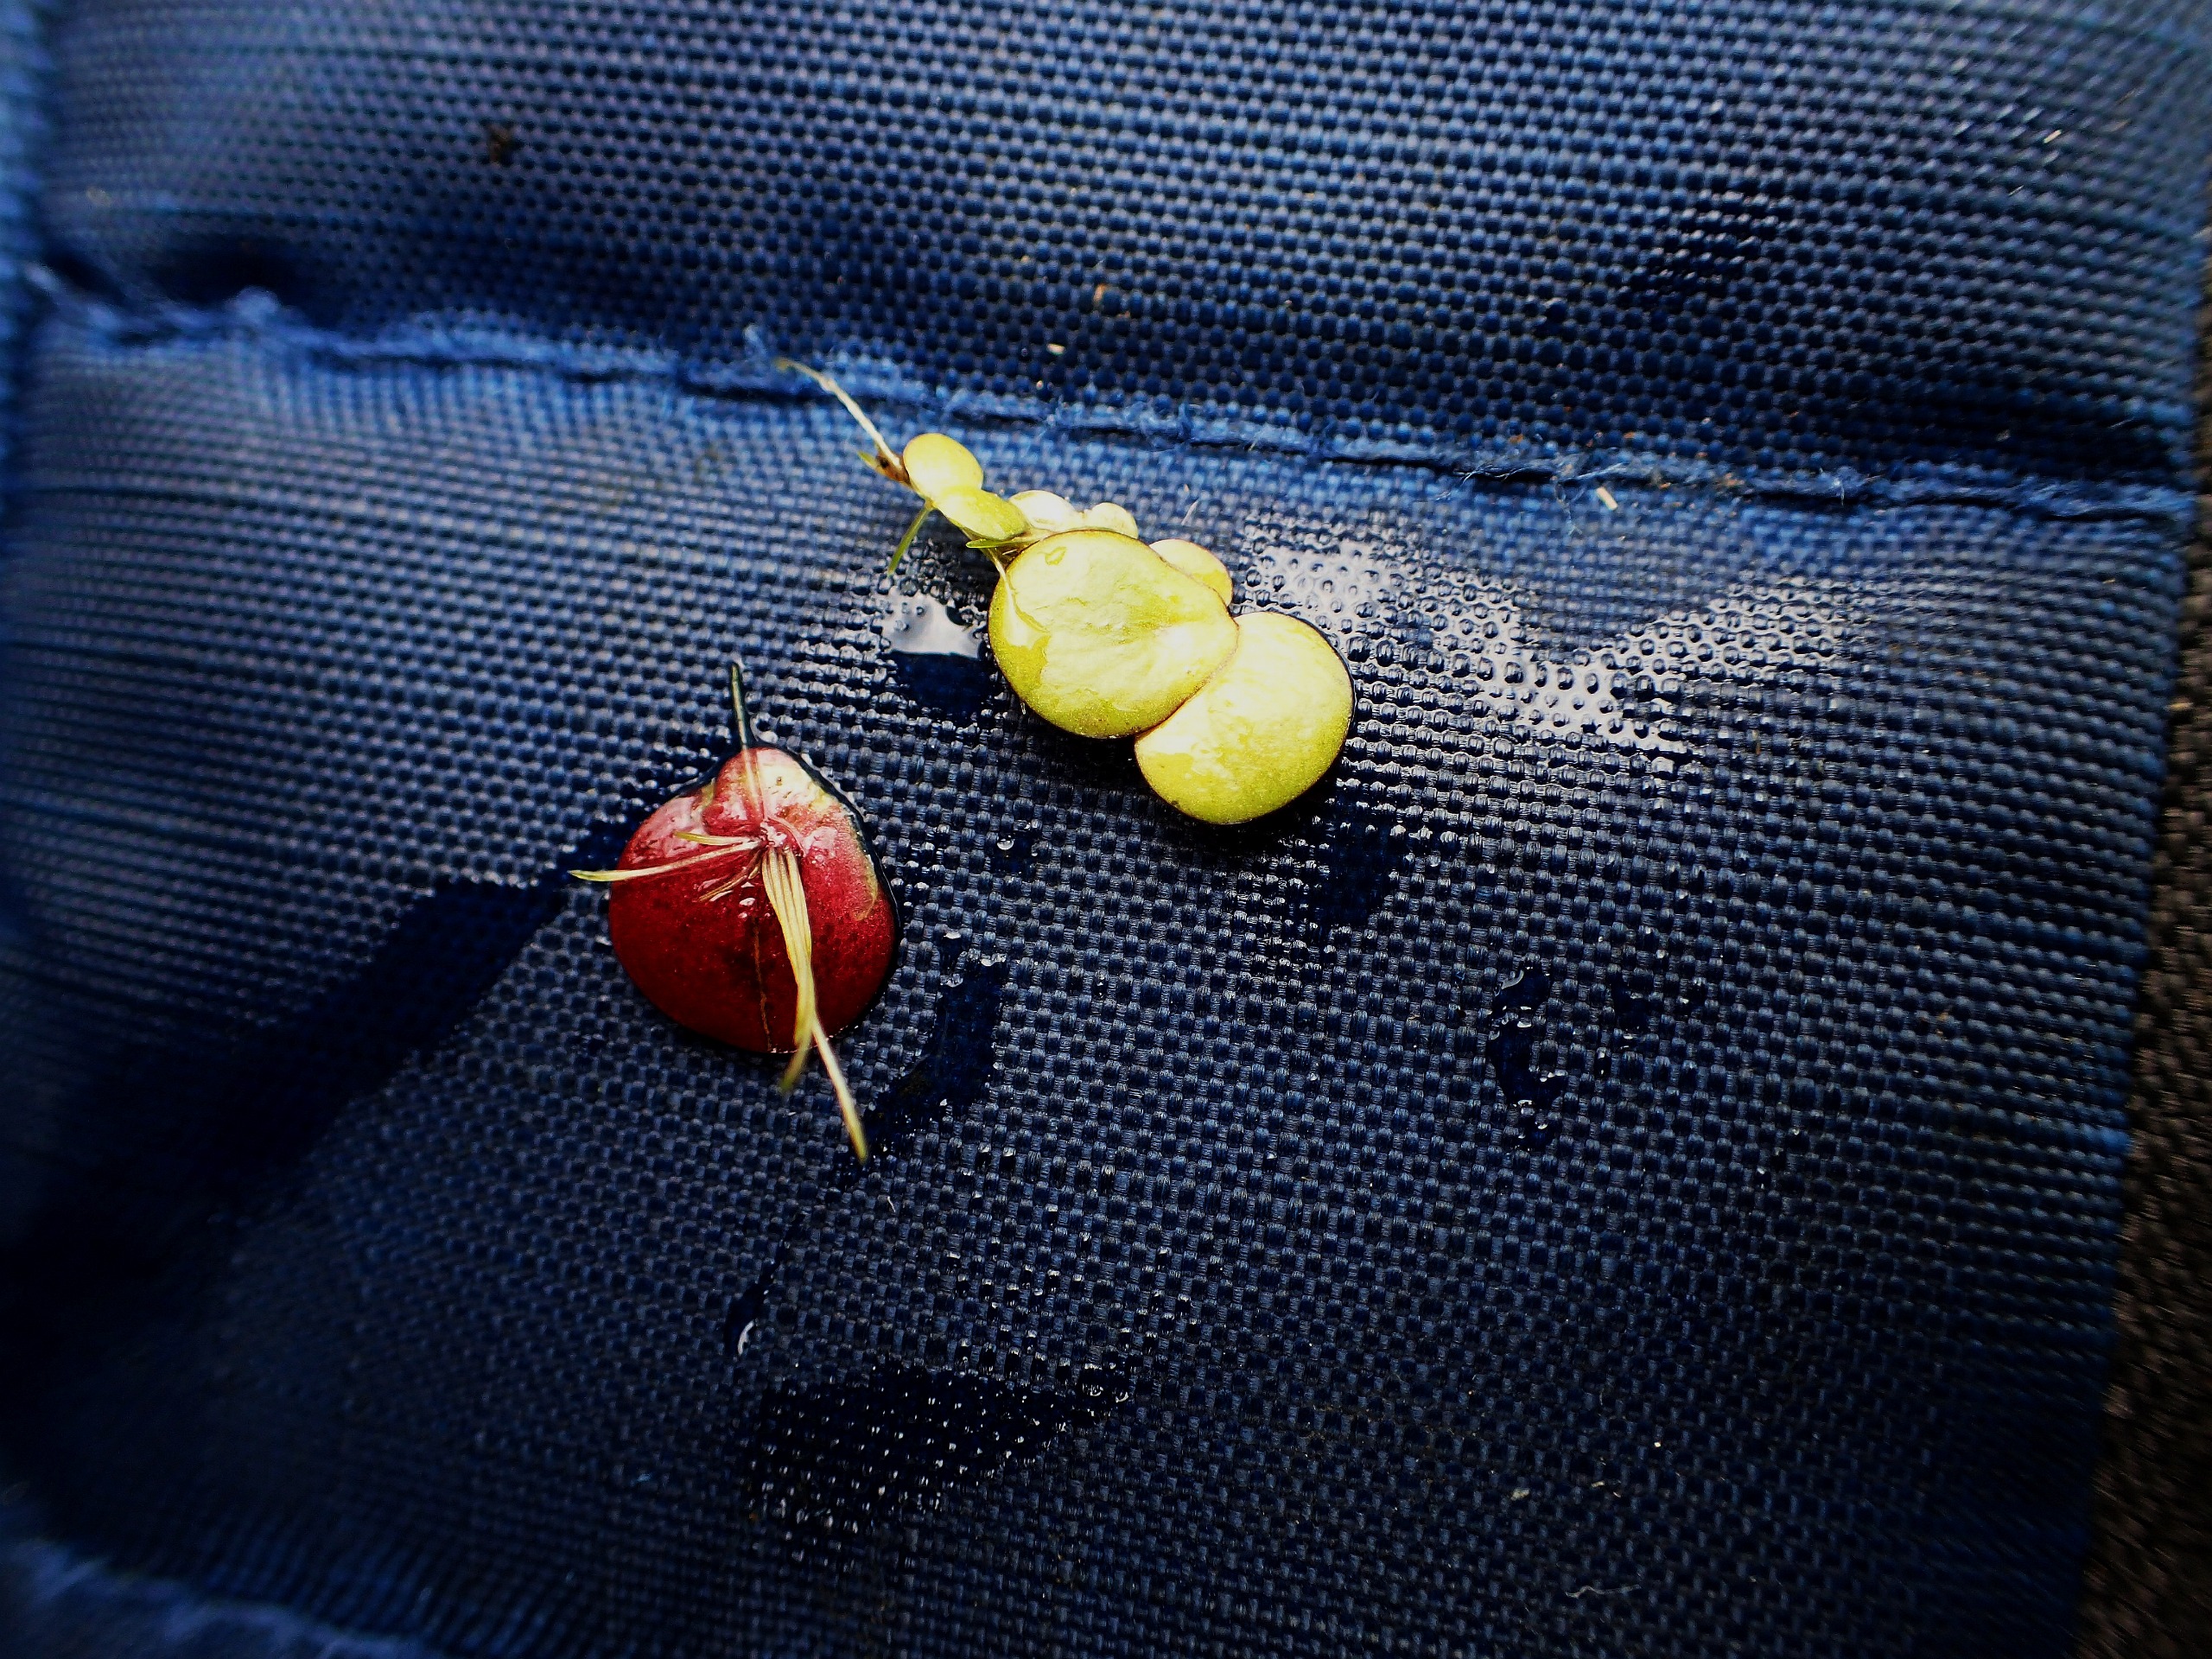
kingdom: Plantae
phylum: Tracheophyta
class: Liliopsida
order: Alismatales
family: Araceae
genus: Spirodela
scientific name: Spirodela polyrhiza
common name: Stor andemad
